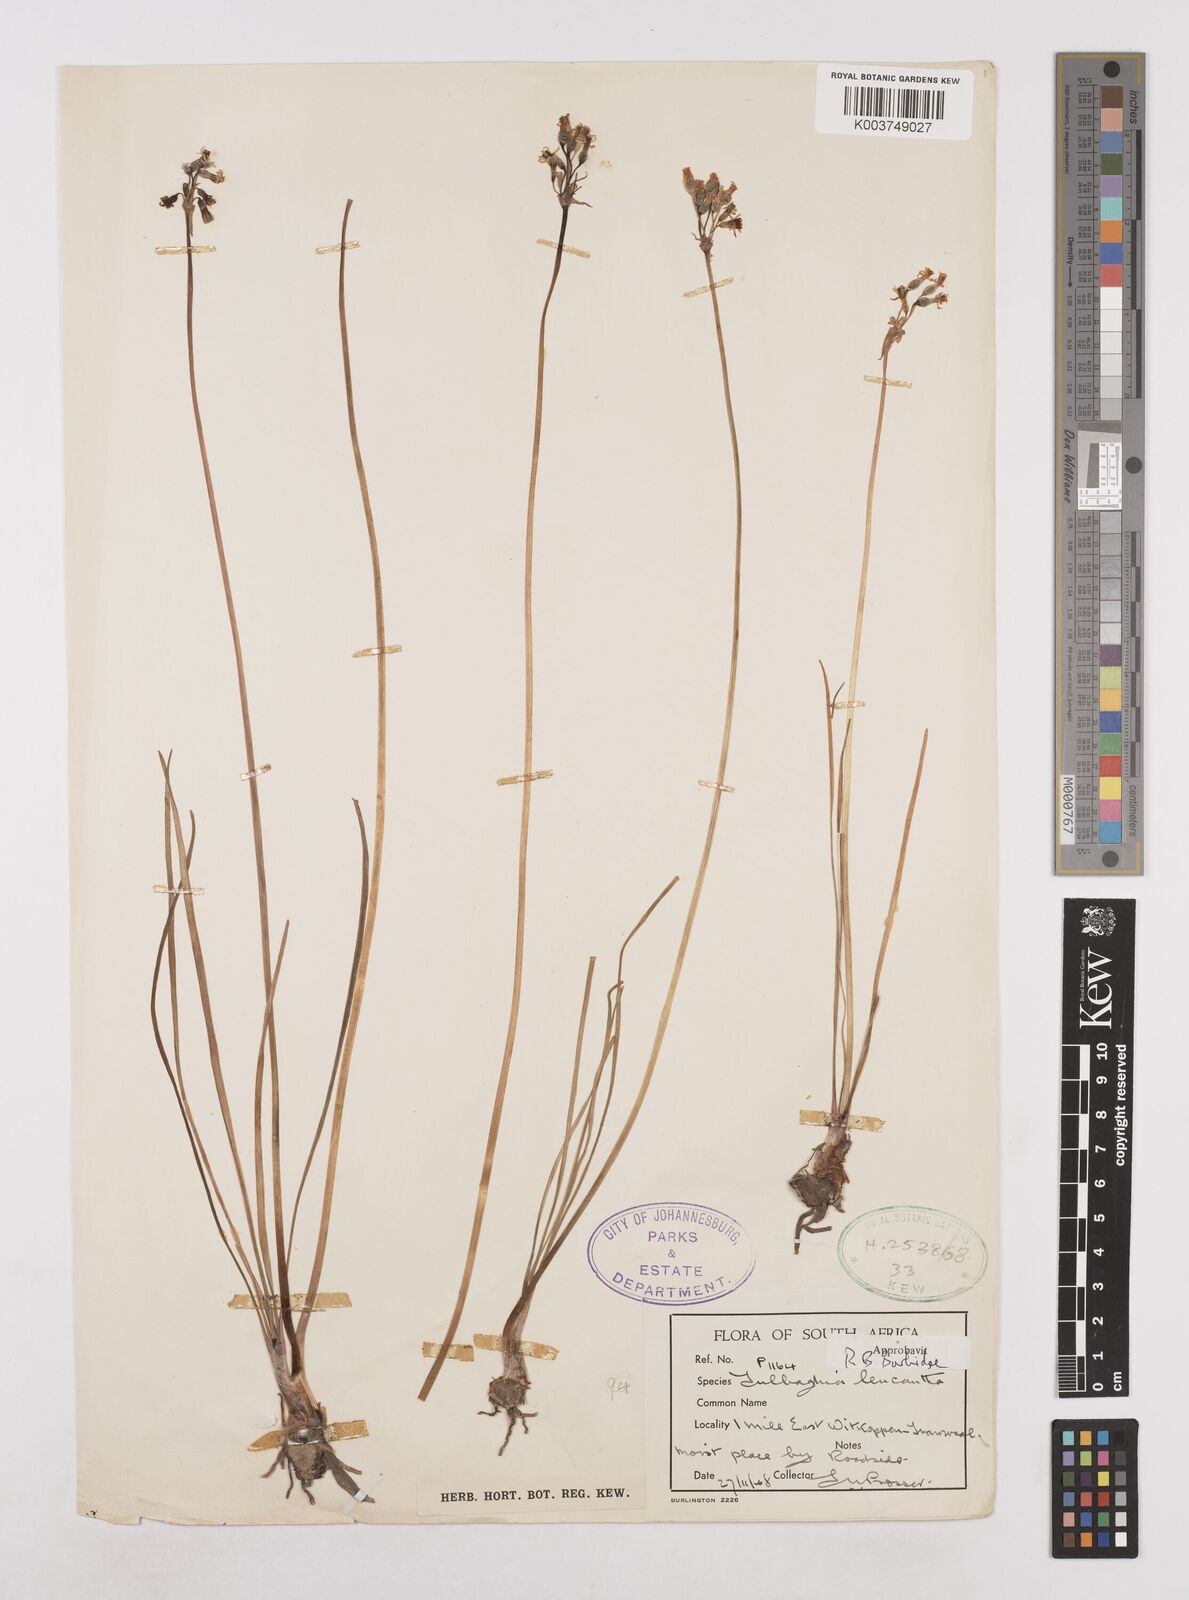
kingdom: Plantae
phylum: Tracheophyta
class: Liliopsida
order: Asparagales
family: Amaryllidaceae
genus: Tulbaghia
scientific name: Tulbaghia leucantha
